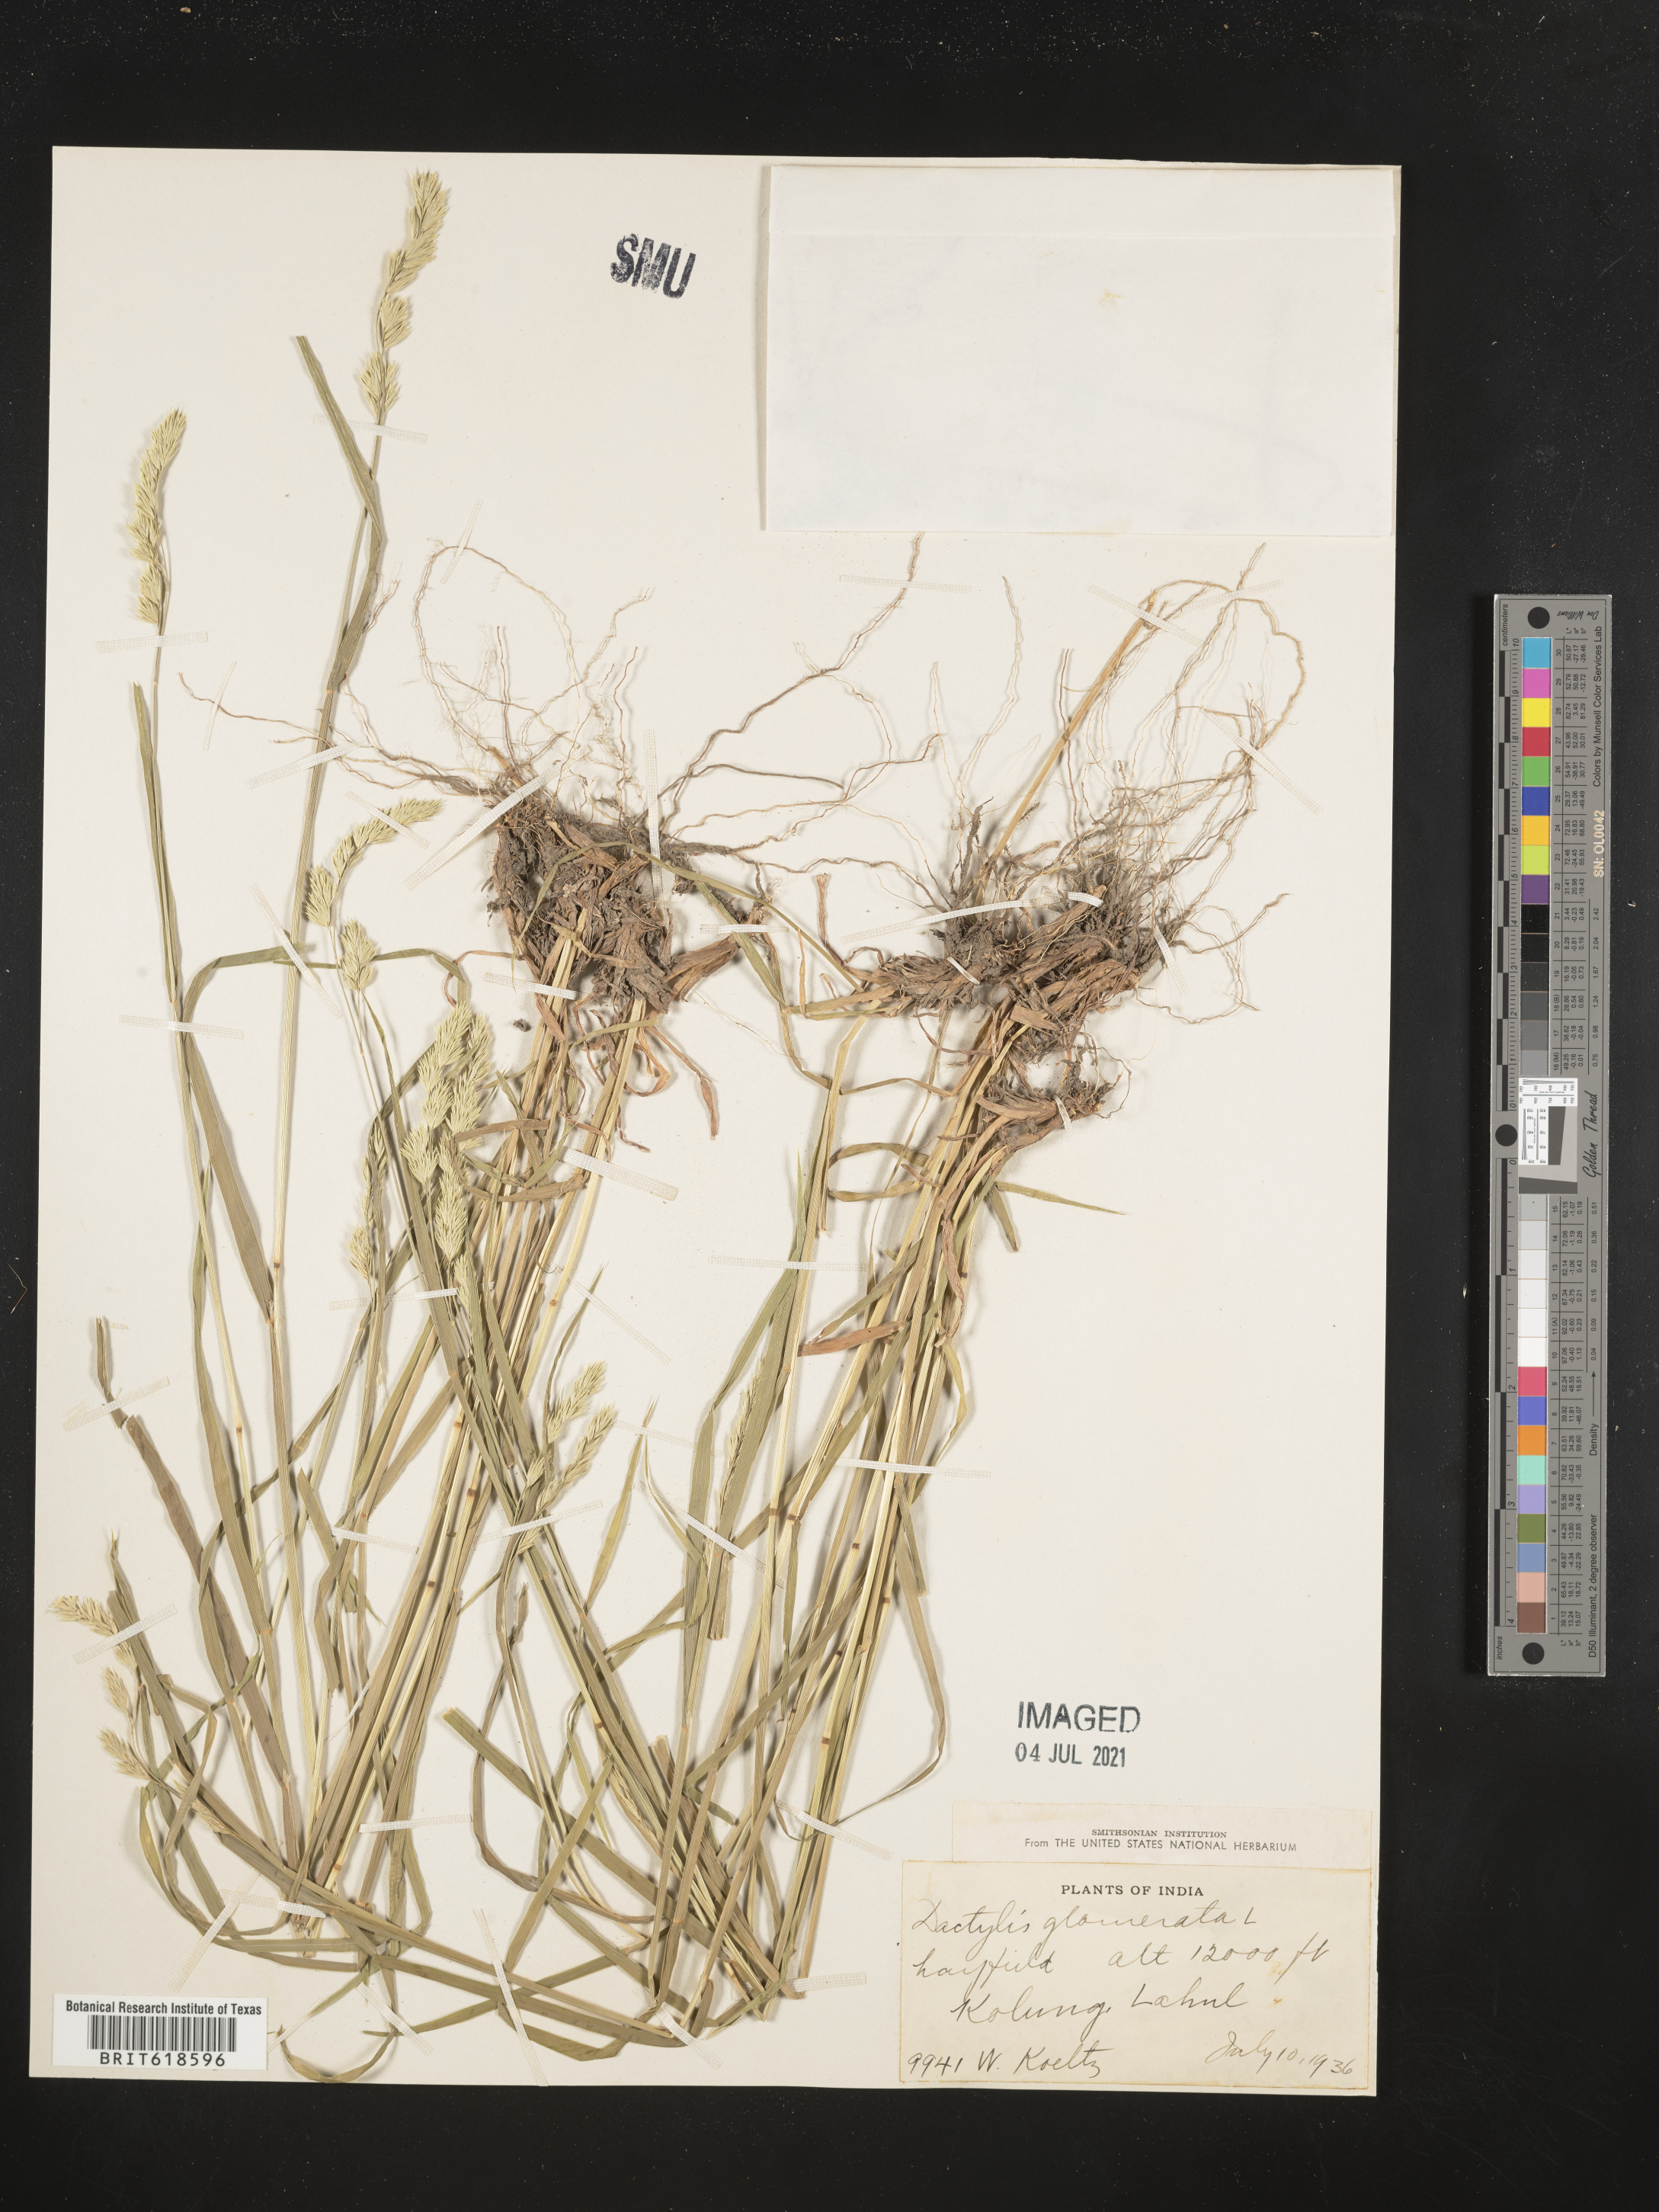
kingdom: Plantae
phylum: Tracheophyta
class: Liliopsida
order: Poales
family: Poaceae
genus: Dactylis
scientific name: Dactylis glomerata
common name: Orchardgrass
